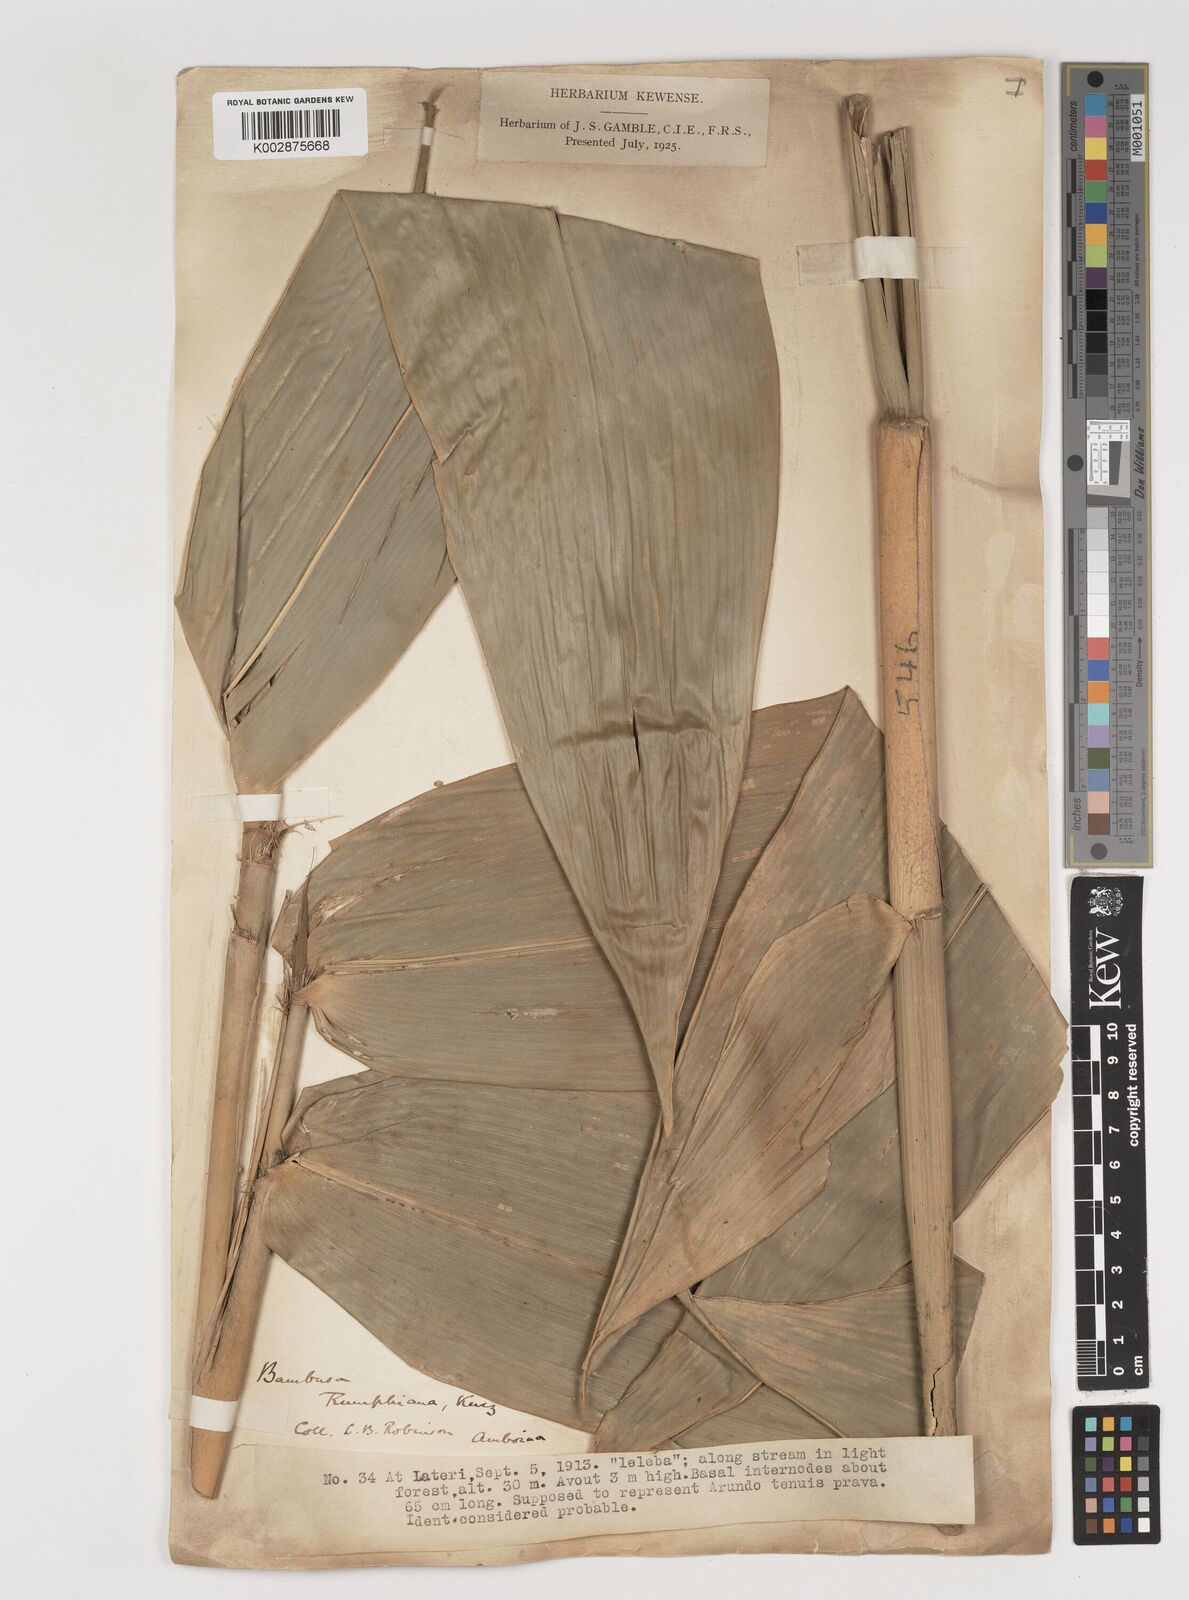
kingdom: Plantae
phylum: Tracheophyta
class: Liliopsida
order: Poales
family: Poaceae
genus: Neololeba
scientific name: Neololeba atra
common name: Cape bamboo
